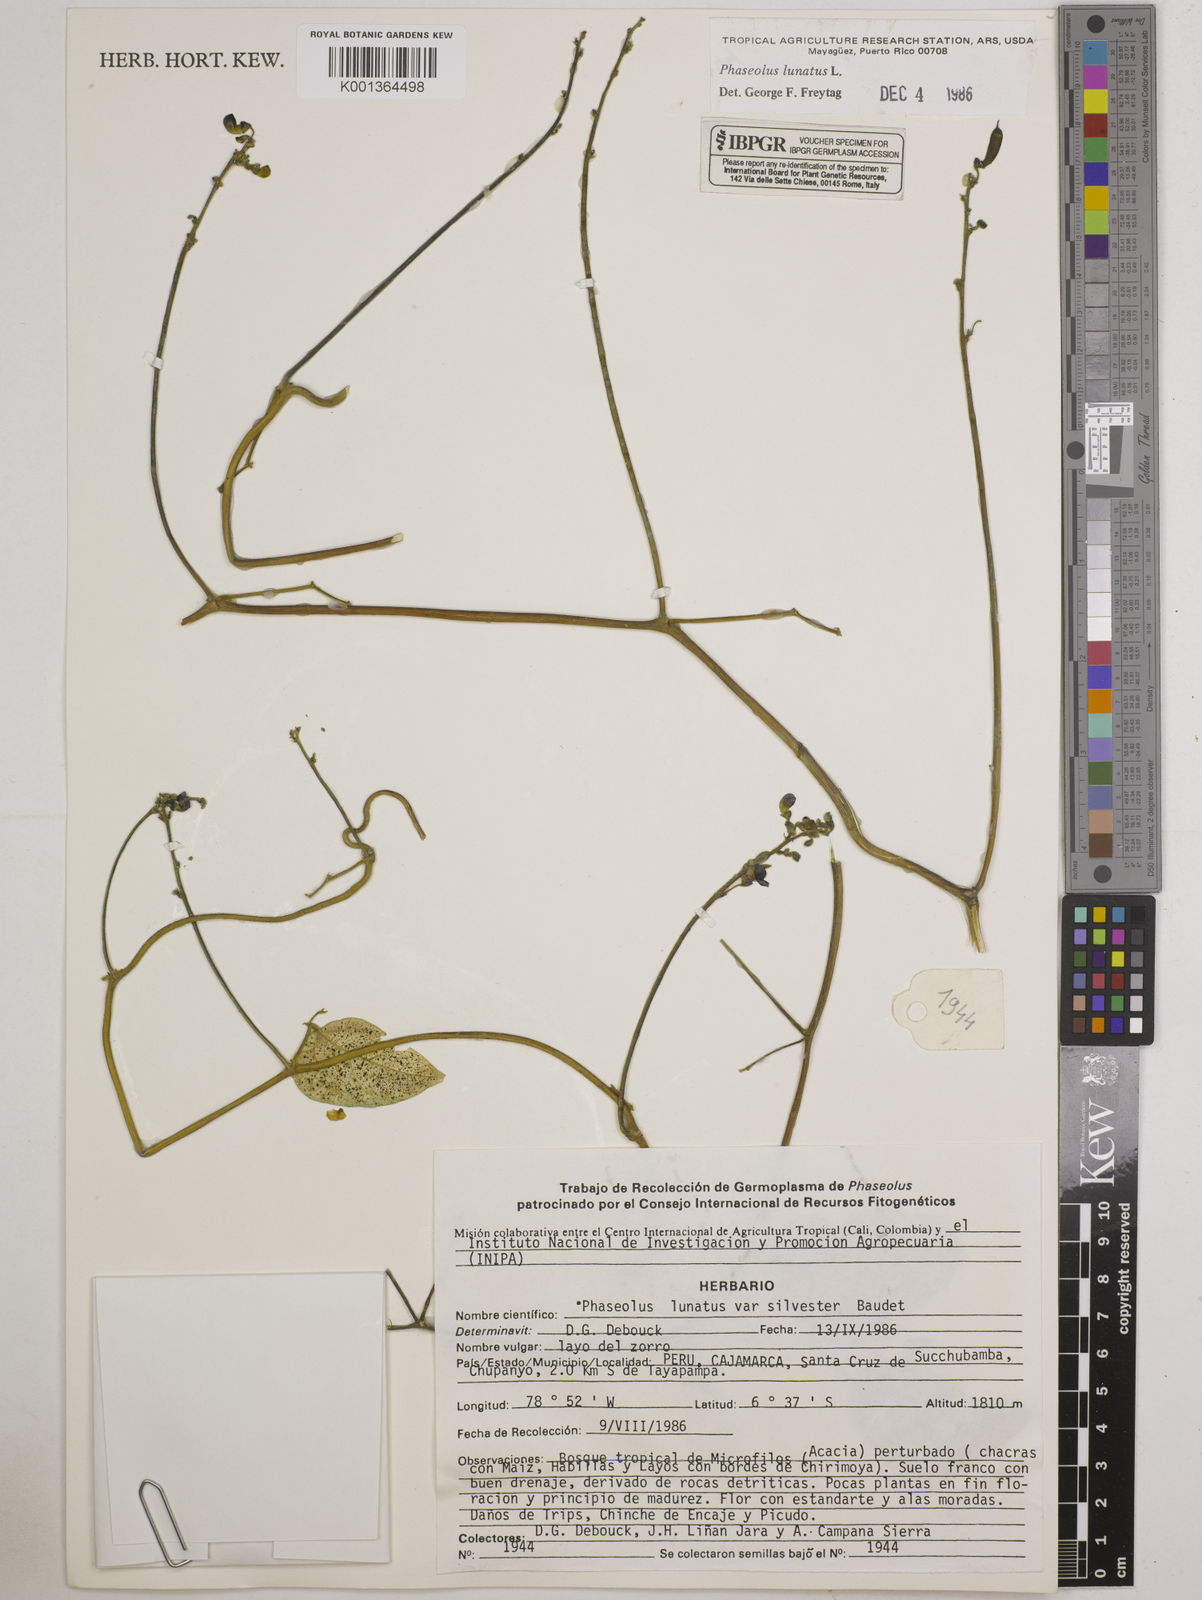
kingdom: Plantae
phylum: Tracheophyta
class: Magnoliopsida
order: Fabales
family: Fabaceae
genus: Phaseolus
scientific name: Phaseolus lunatus
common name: Sieva bean
